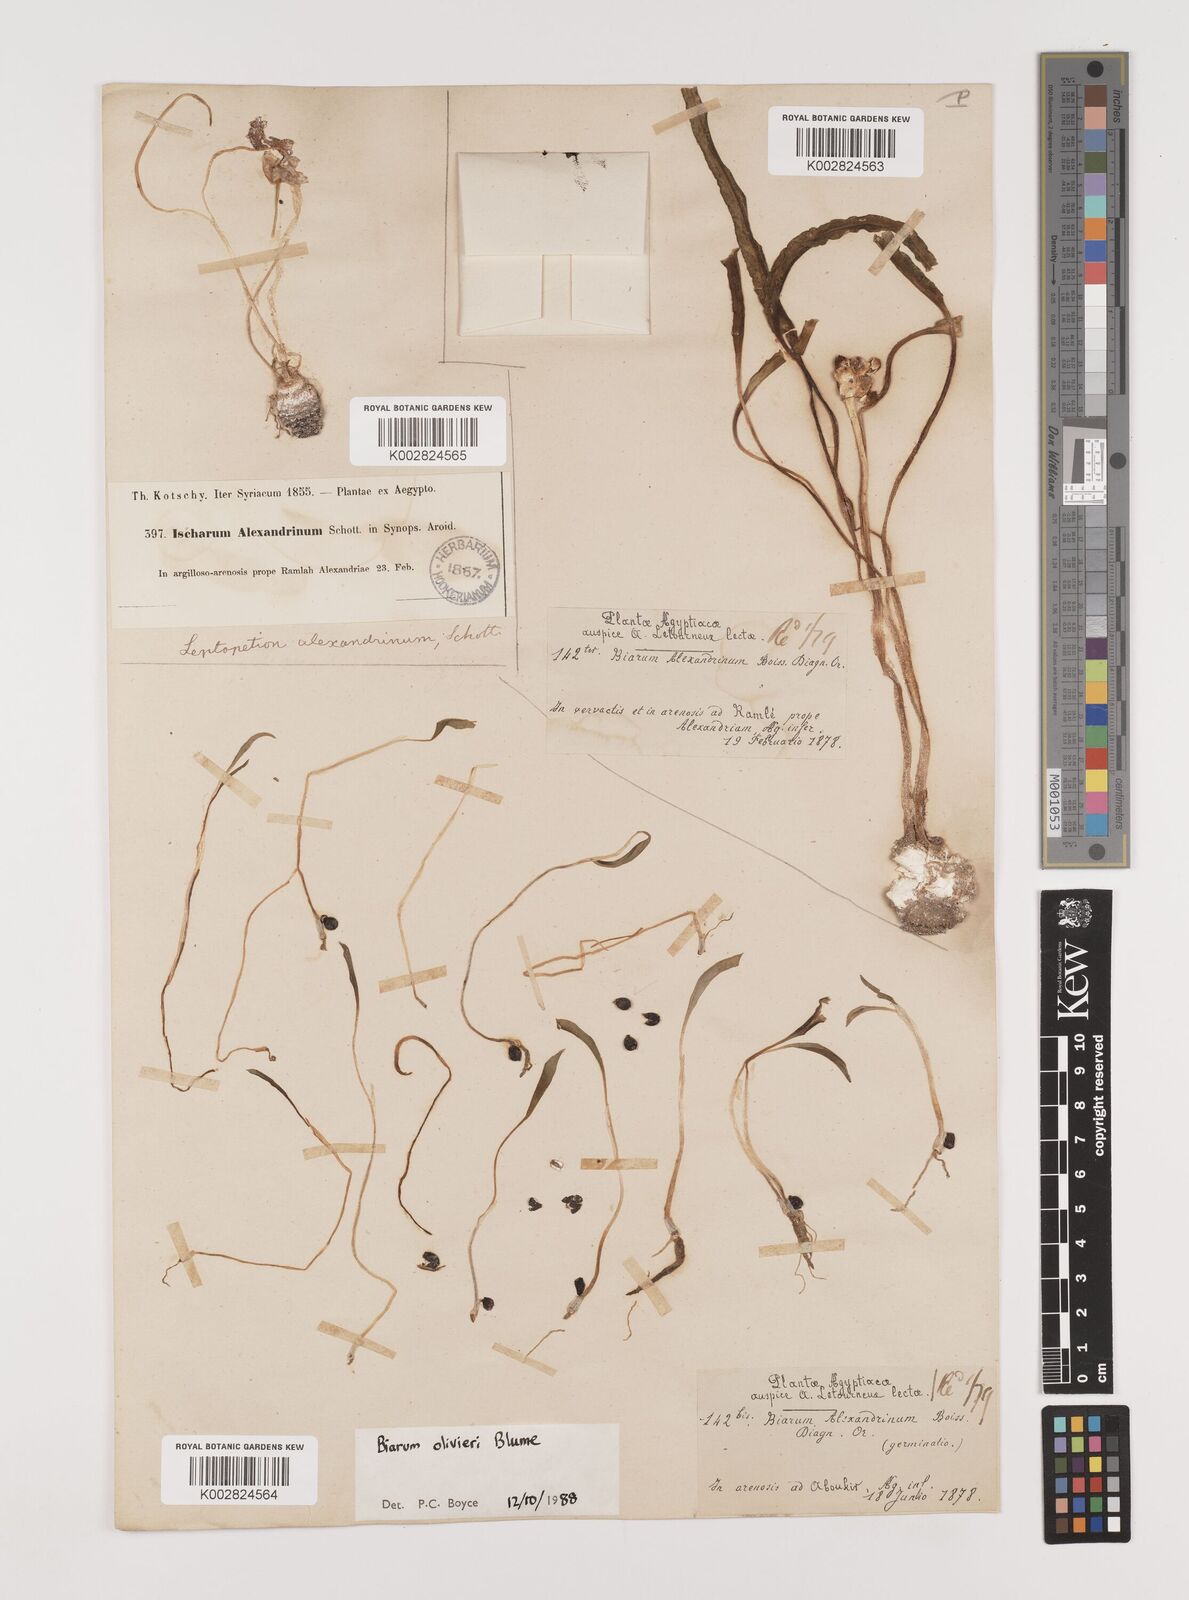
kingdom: Plantae
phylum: Tracheophyta
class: Liliopsida
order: Alismatales
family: Araceae
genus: Biarum
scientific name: Biarum olivieri
